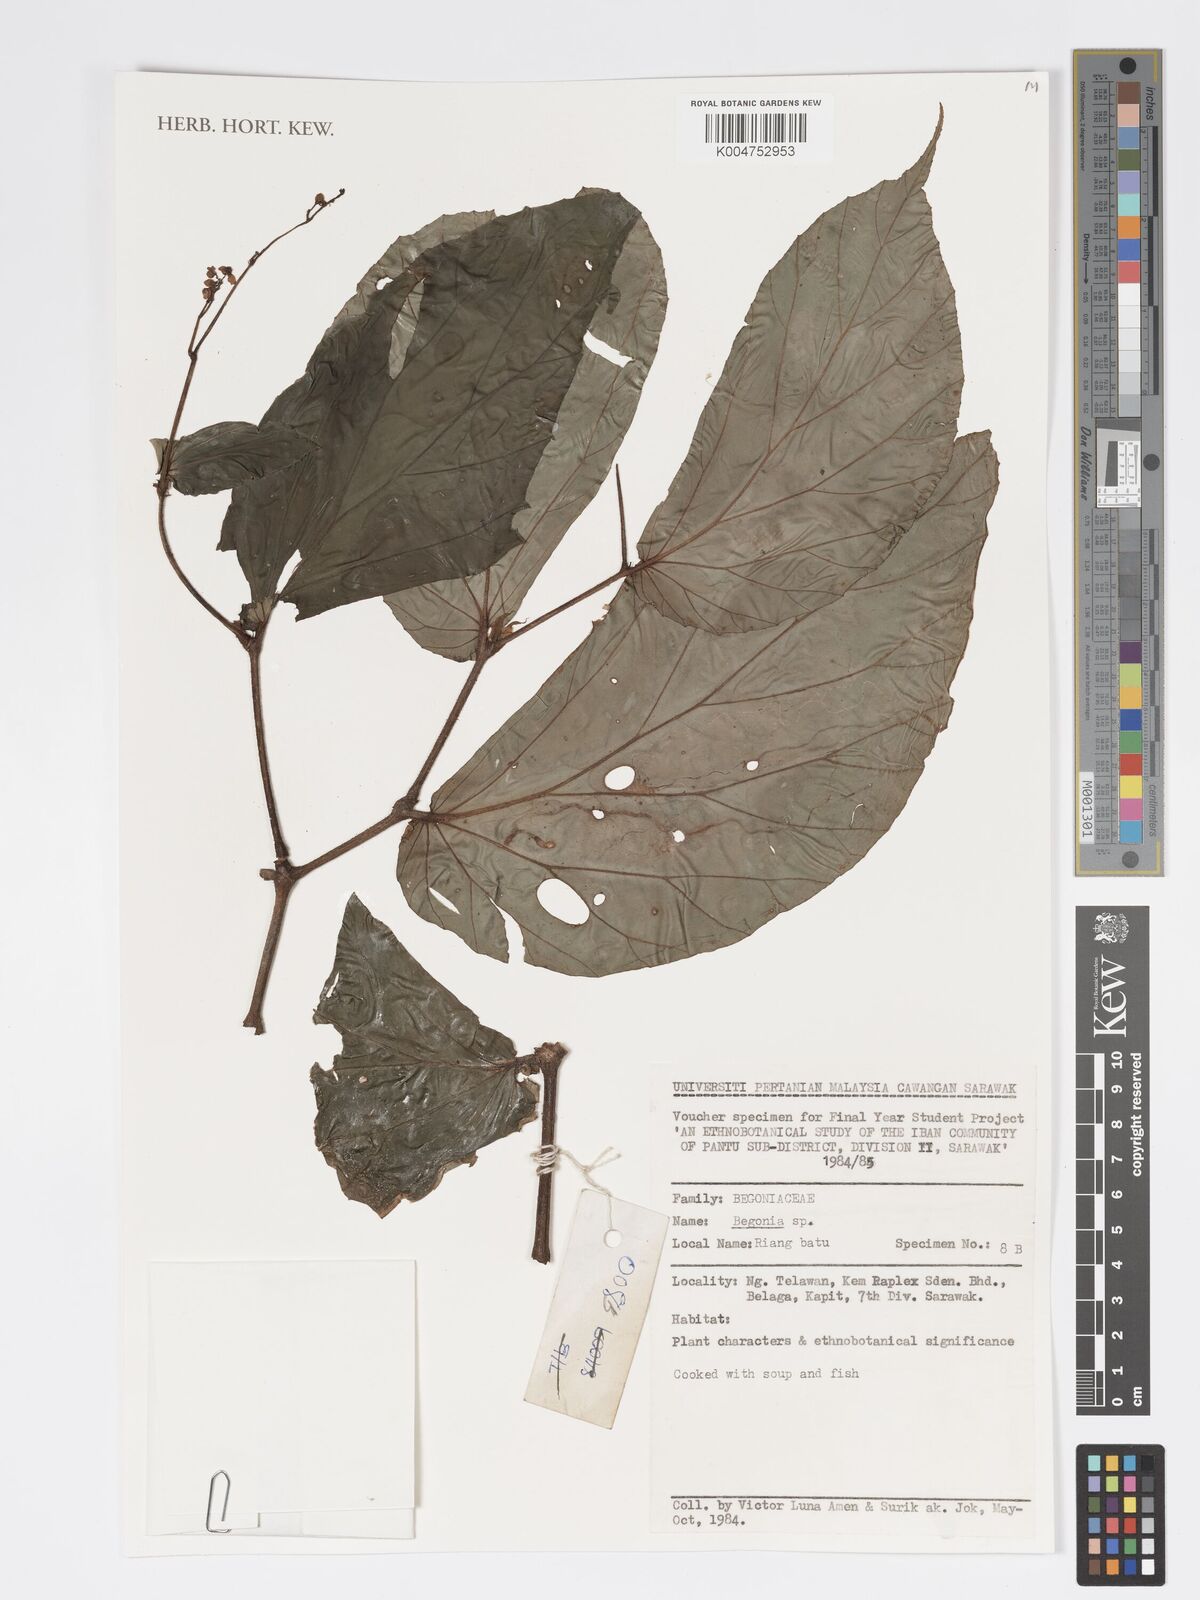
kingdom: Plantae
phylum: Tracheophyta
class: Magnoliopsida
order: Cucurbitales
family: Begoniaceae
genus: Begonia
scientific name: Begonia
